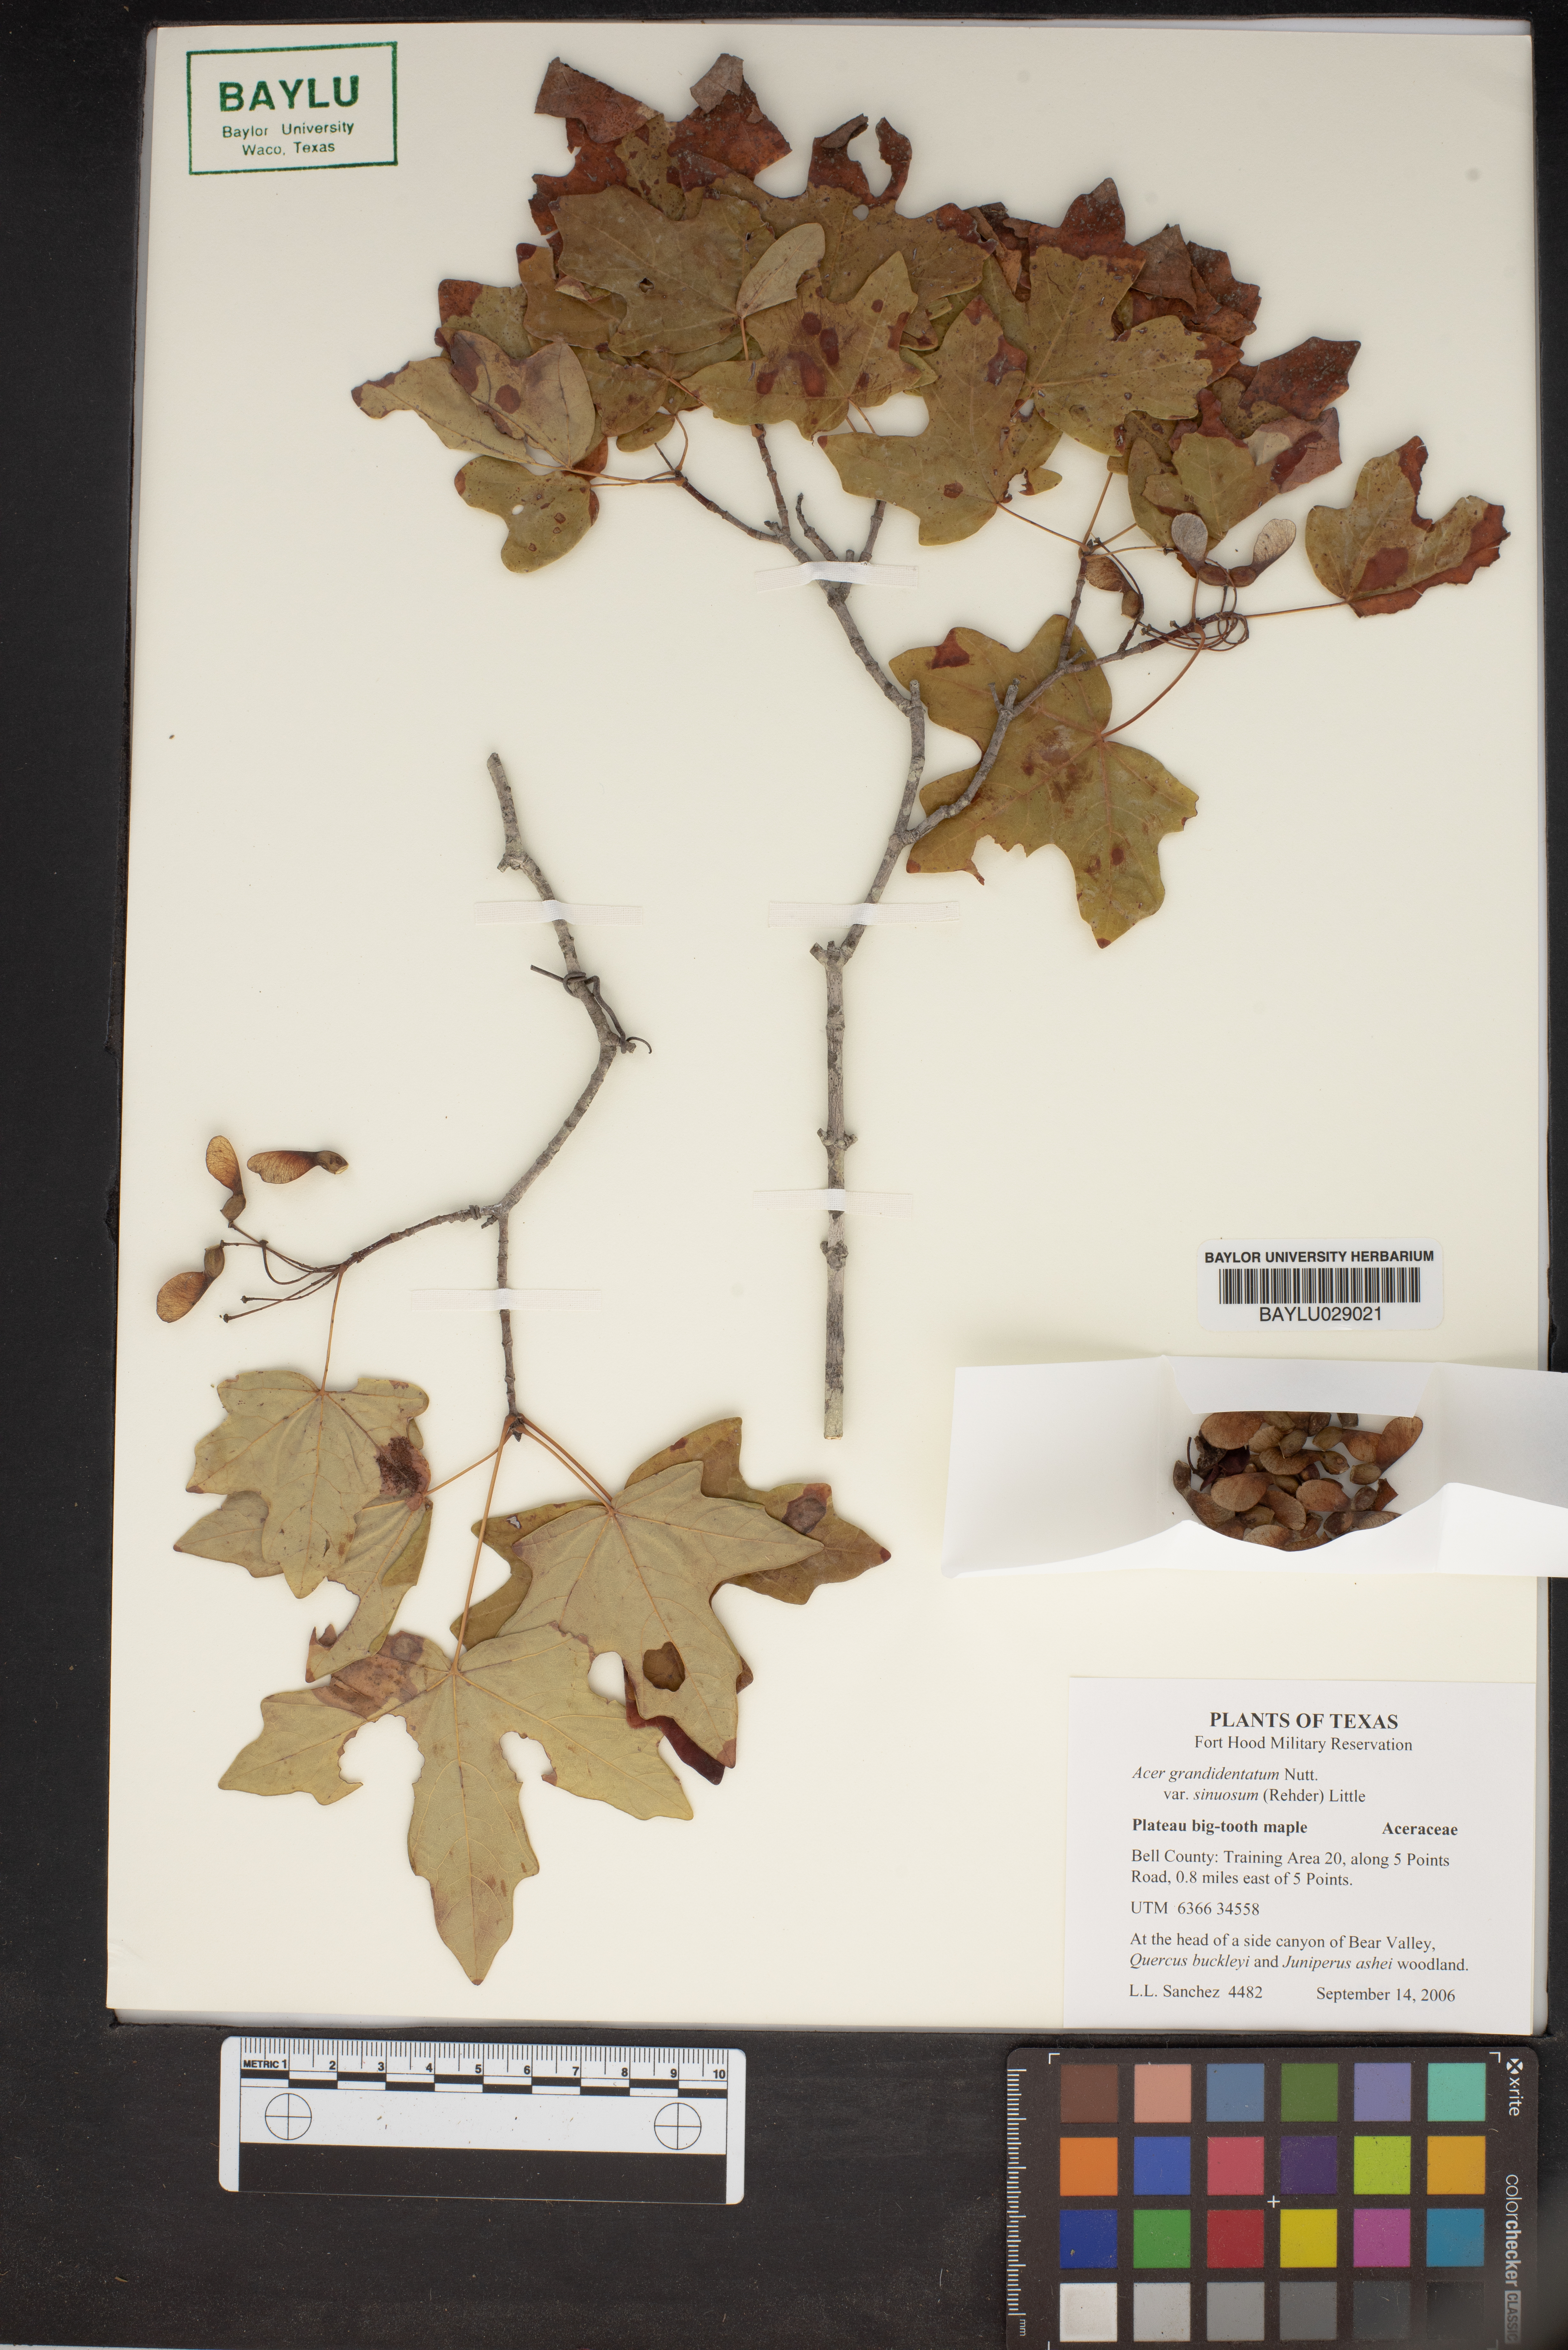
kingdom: Plantae
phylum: Tracheophyta
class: Magnoliopsida
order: Sapindales
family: Sapindaceae
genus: Acer
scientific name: Acer grandidentatum
